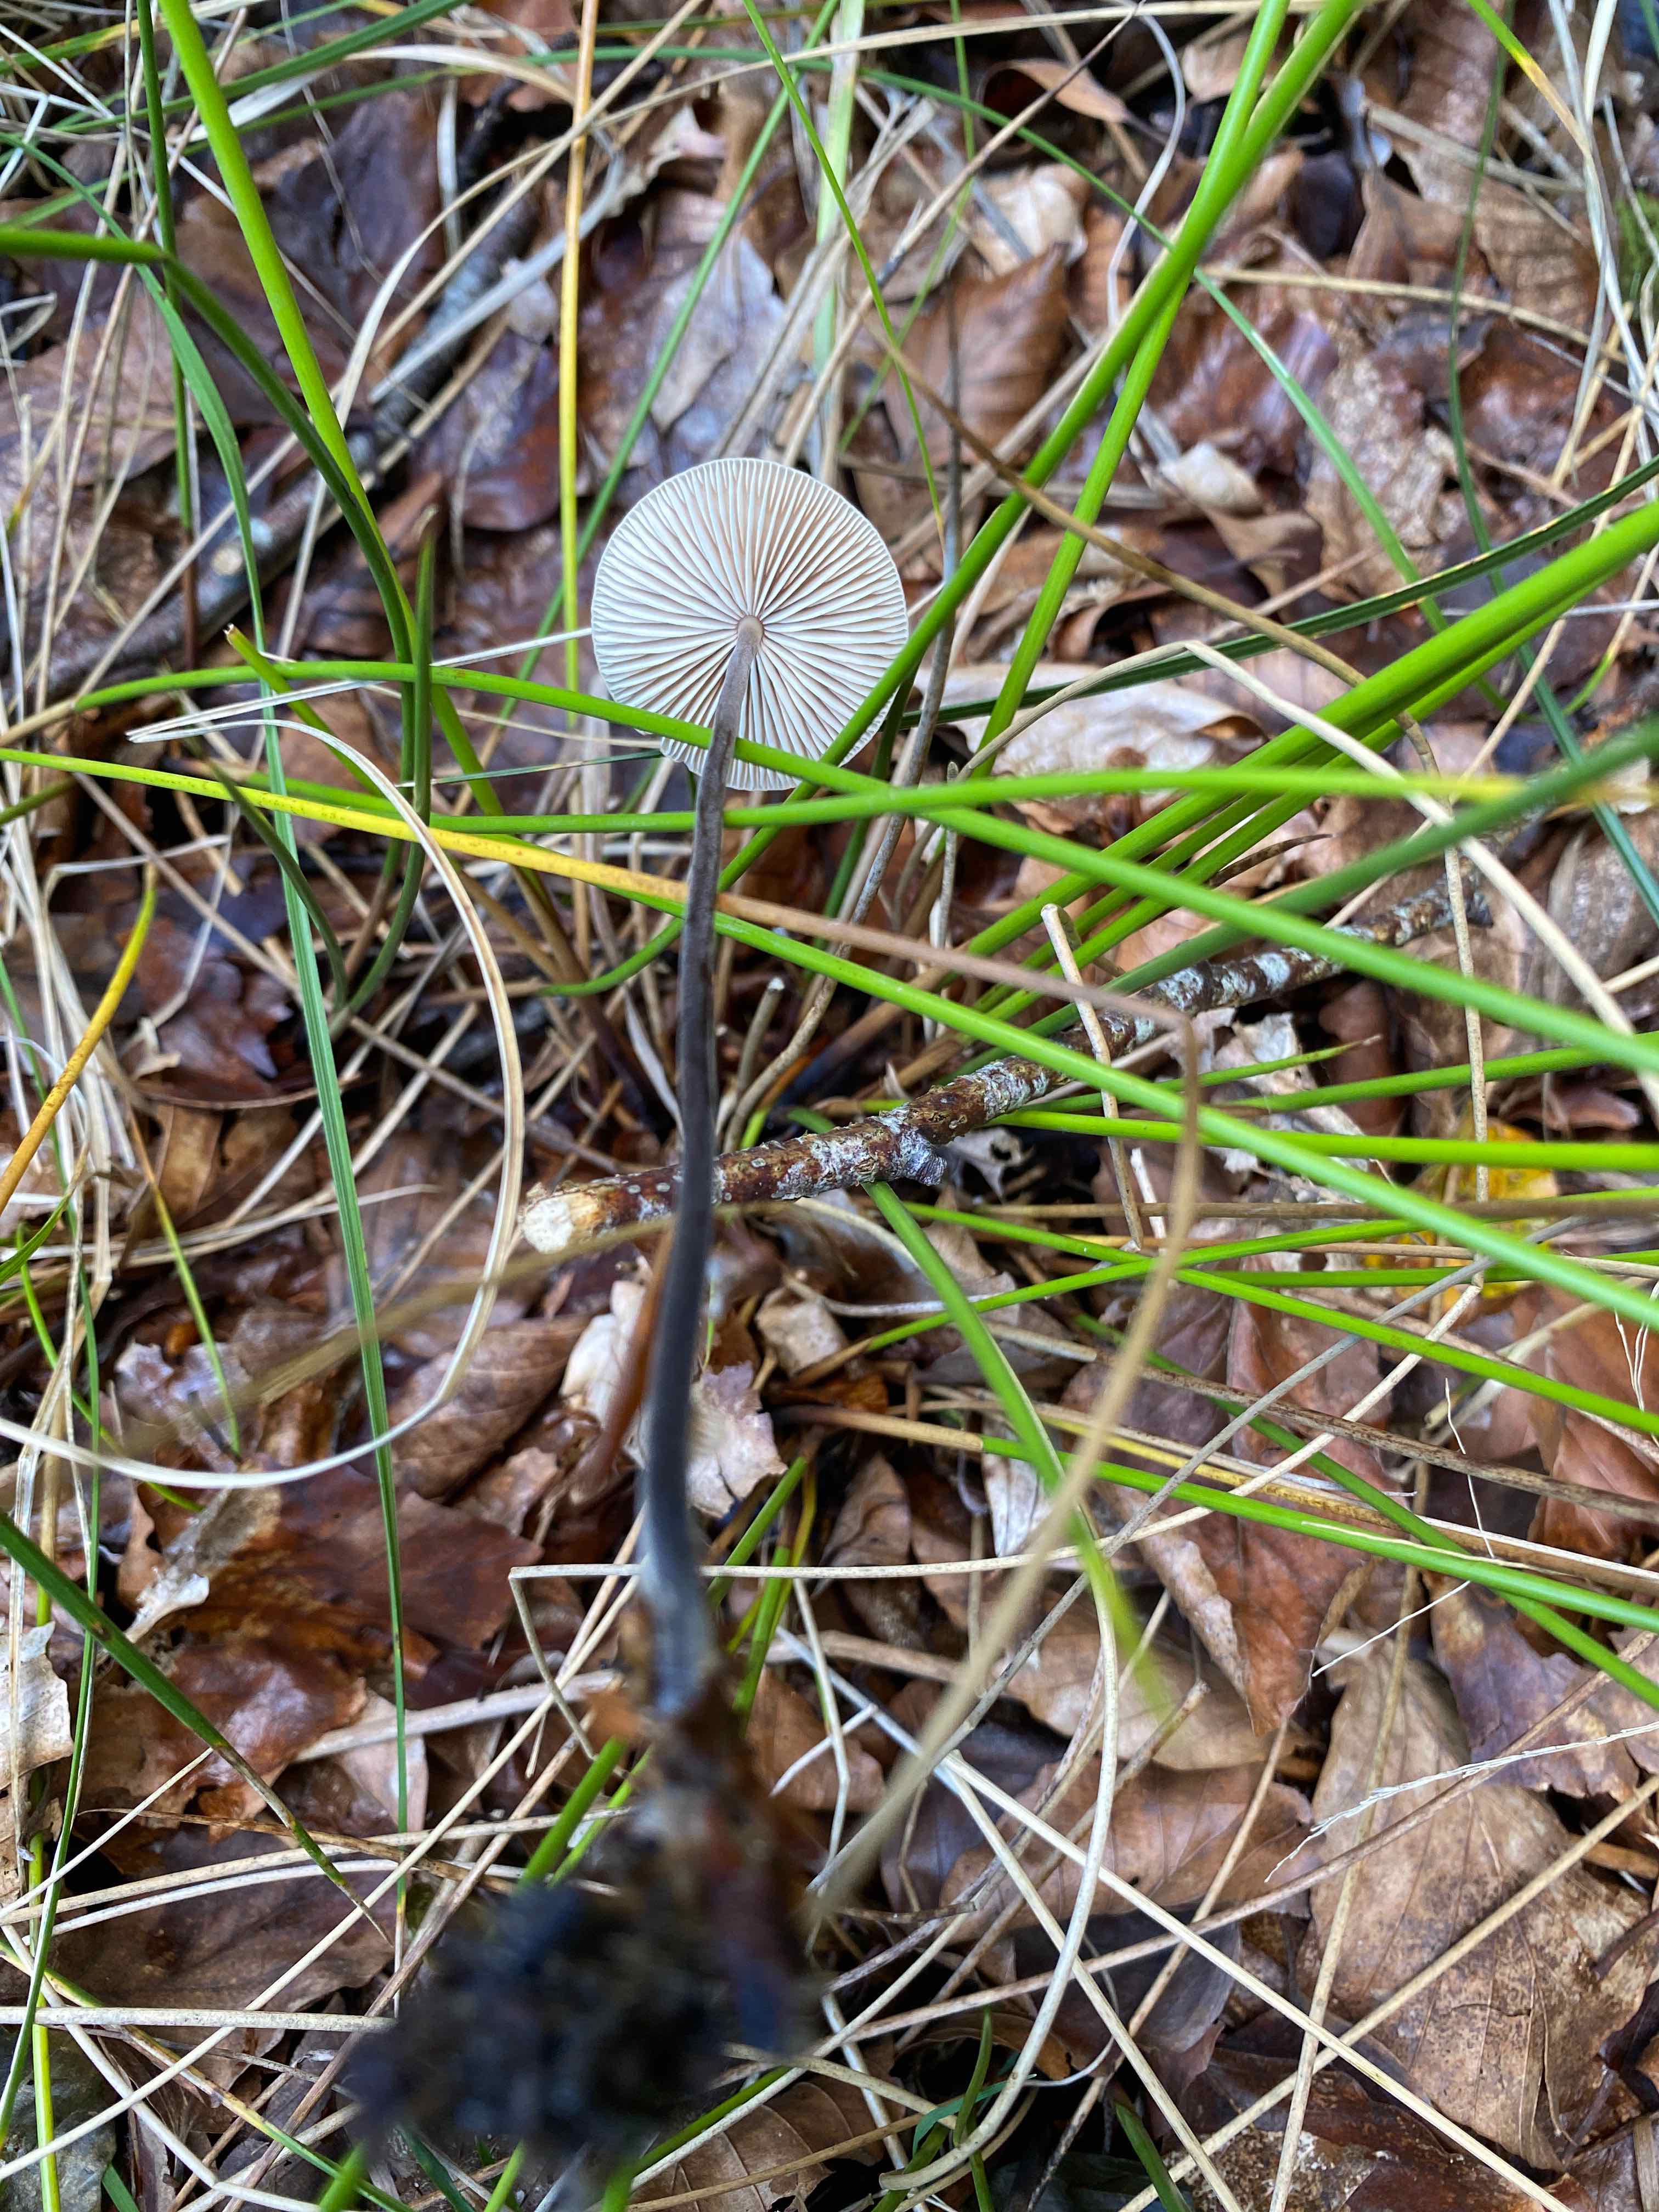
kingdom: Fungi
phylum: Basidiomycota
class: Agaricomycetes
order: Agaricales
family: Omphalotaceae
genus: Mycetinis
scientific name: Mycetinis alliaceus
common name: stor løghat
